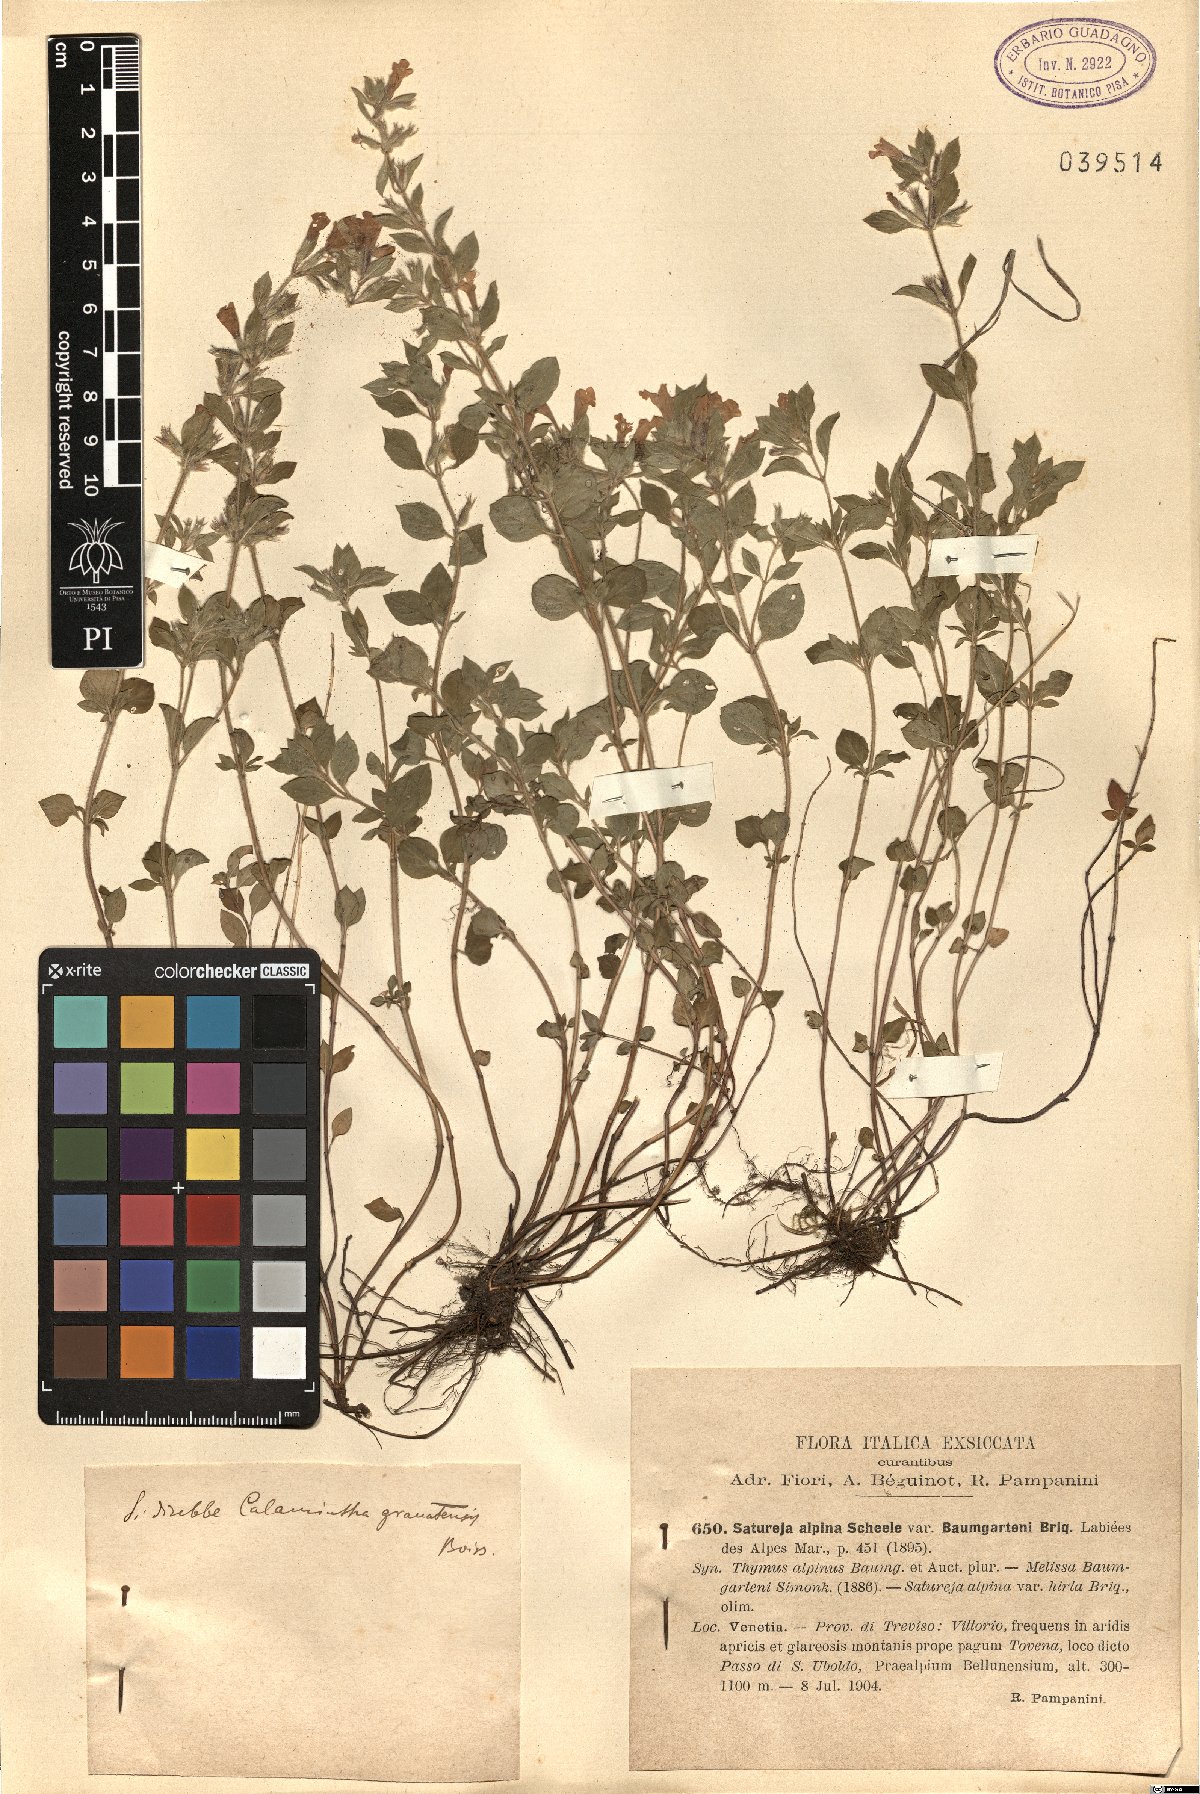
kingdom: Plantae
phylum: Tracheophyta
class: Magnoliopsida
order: Lamiales
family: Lamiaceae
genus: Clinopodium
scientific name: Clinopodium alpinum
